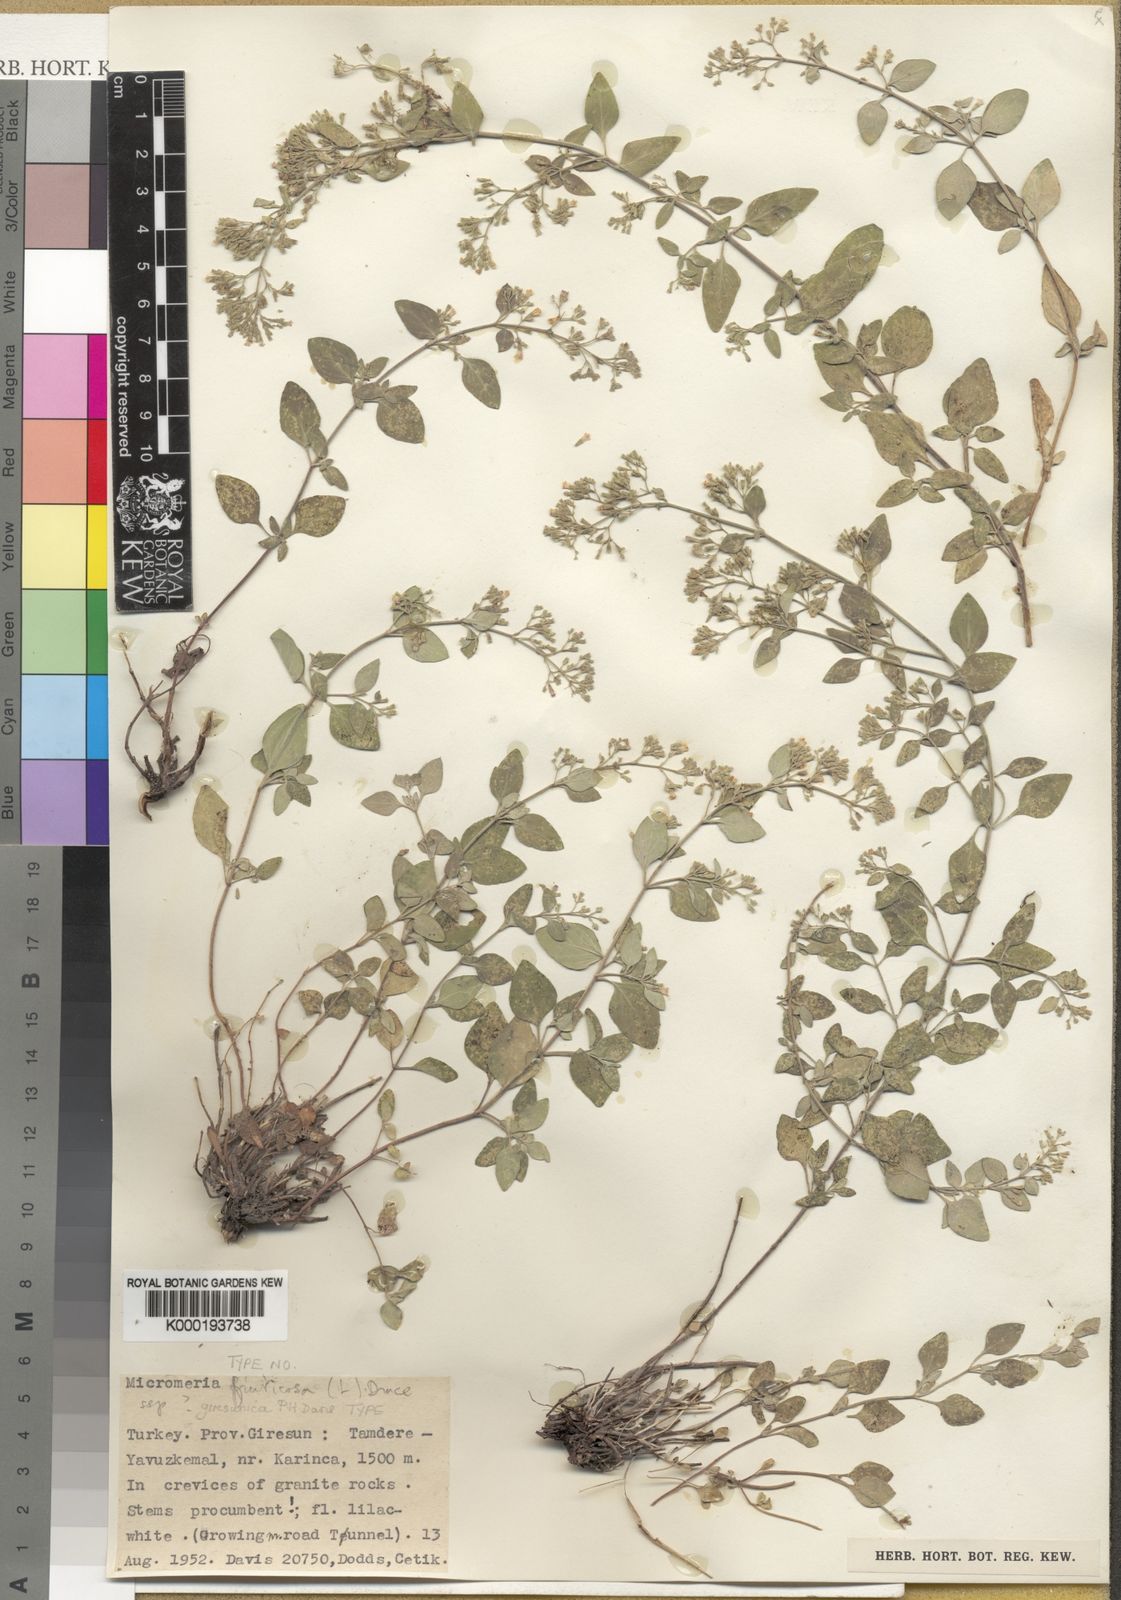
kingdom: Plantae
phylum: Tracheophyta
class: Magnoliopsida
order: Lamiales
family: Lamiaceae
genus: Clinopodium
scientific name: Clinopodium serpyllifolium
